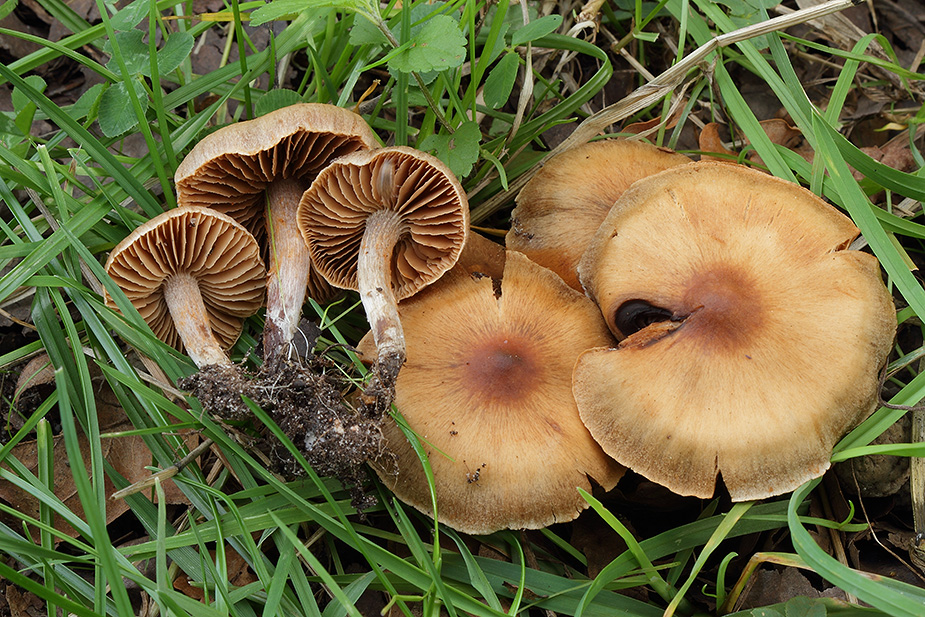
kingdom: Fungi
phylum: Basidiomycota
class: Agaricomycetes
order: Agaricales
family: Cortinariaceae
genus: Cortinarius
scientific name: Cortinarius congregatus
